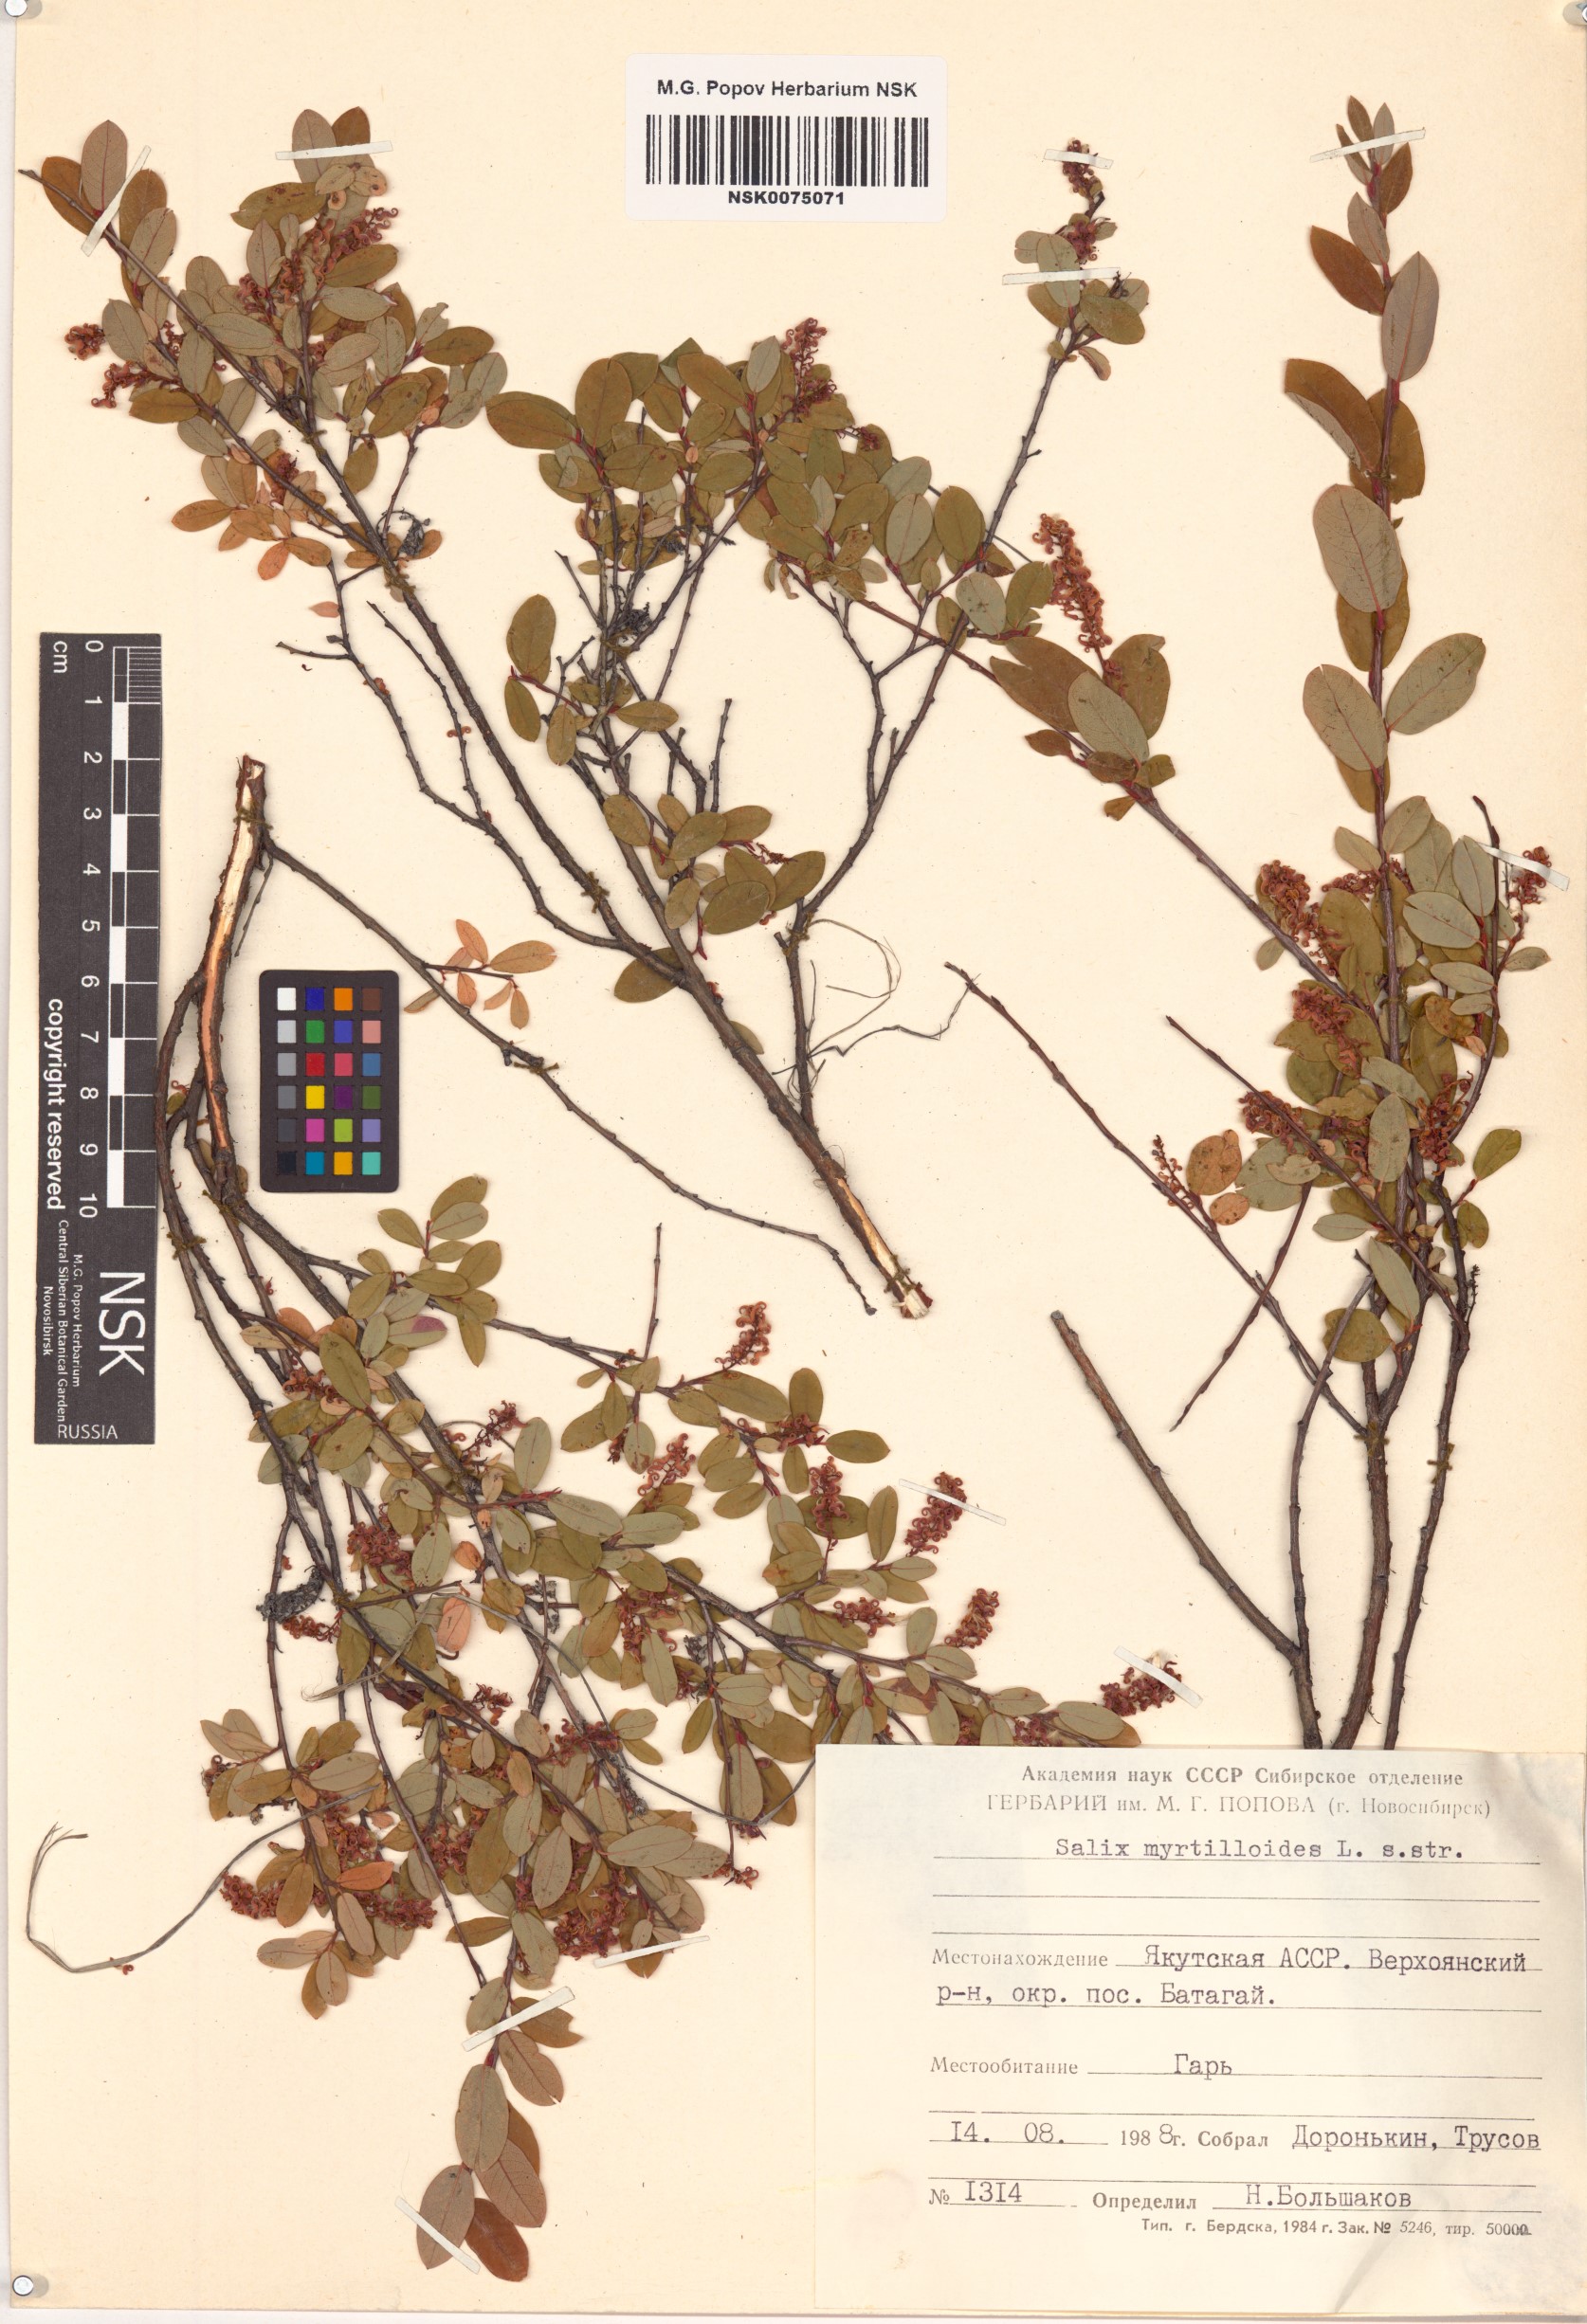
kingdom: Plantae
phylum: Tracheophyta
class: Magnoliopsida
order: Malpighiales
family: Salicaceae
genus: Salix
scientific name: Salix myrtilloides
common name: Myrtle-leaved willow
